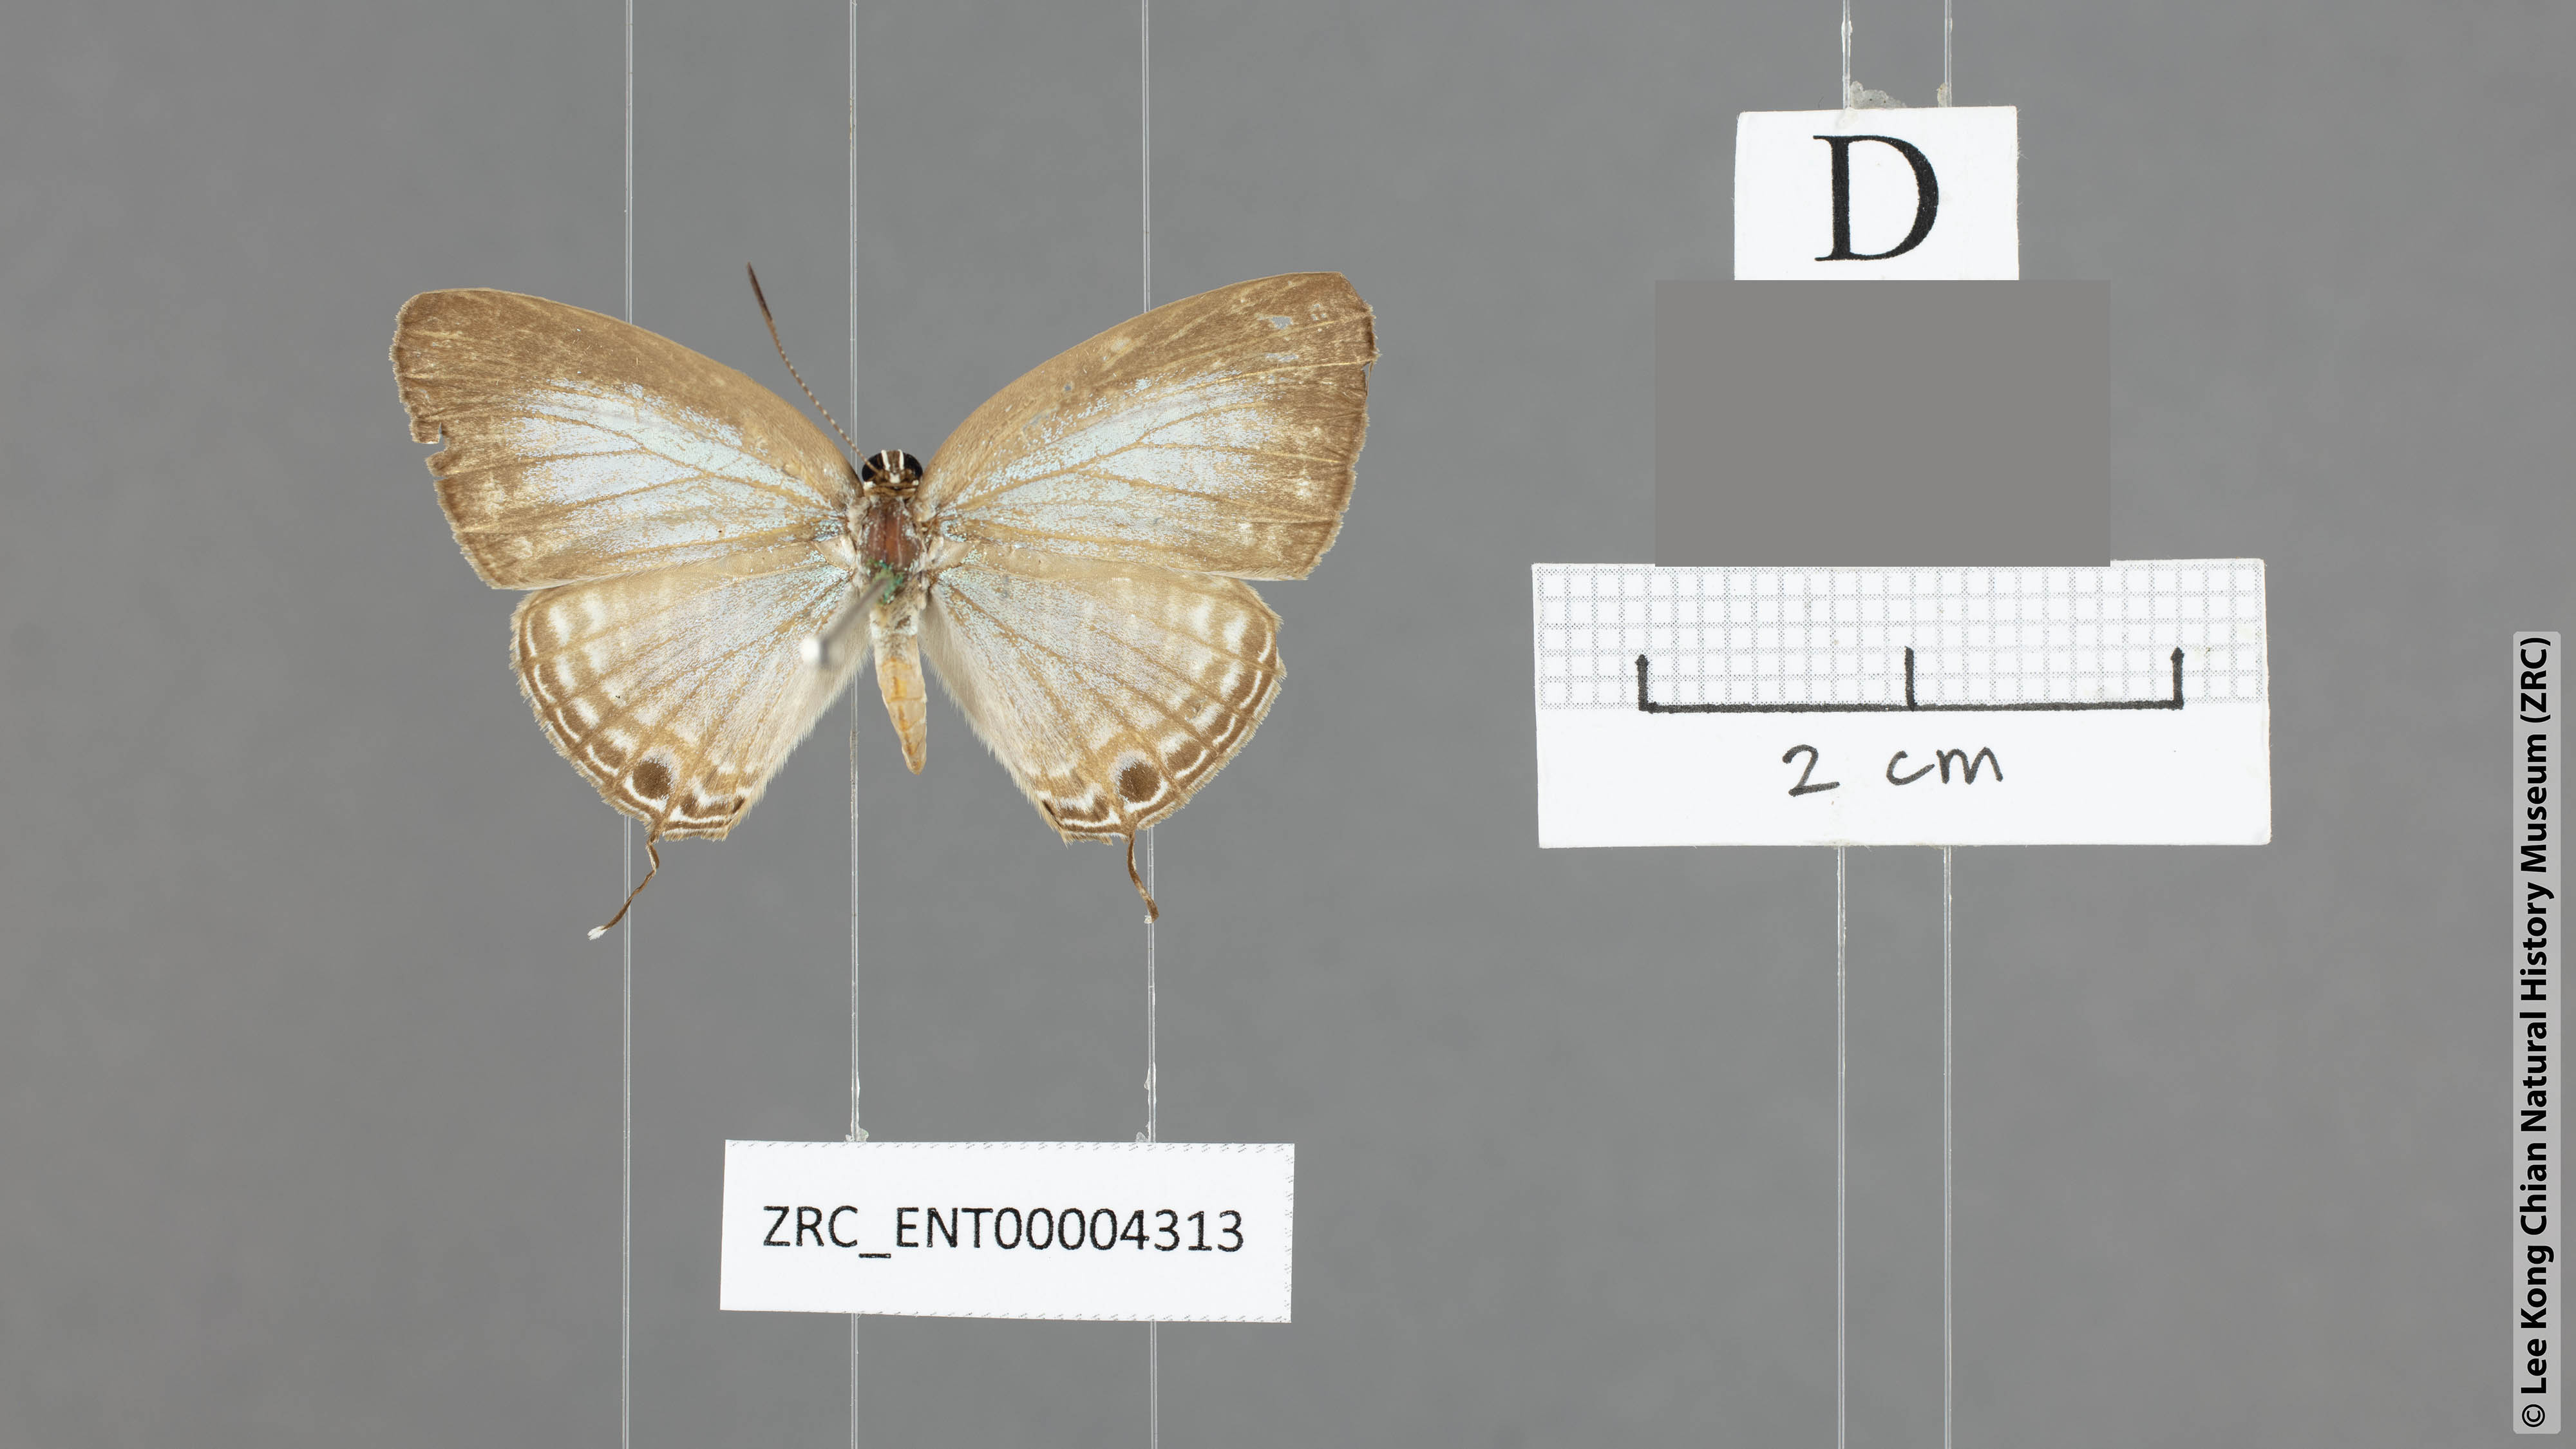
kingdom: Animalia
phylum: Arthropoda
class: Insecta
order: Lepidoptera
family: Lycaenidae
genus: Jamides
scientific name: Jamides abdul
